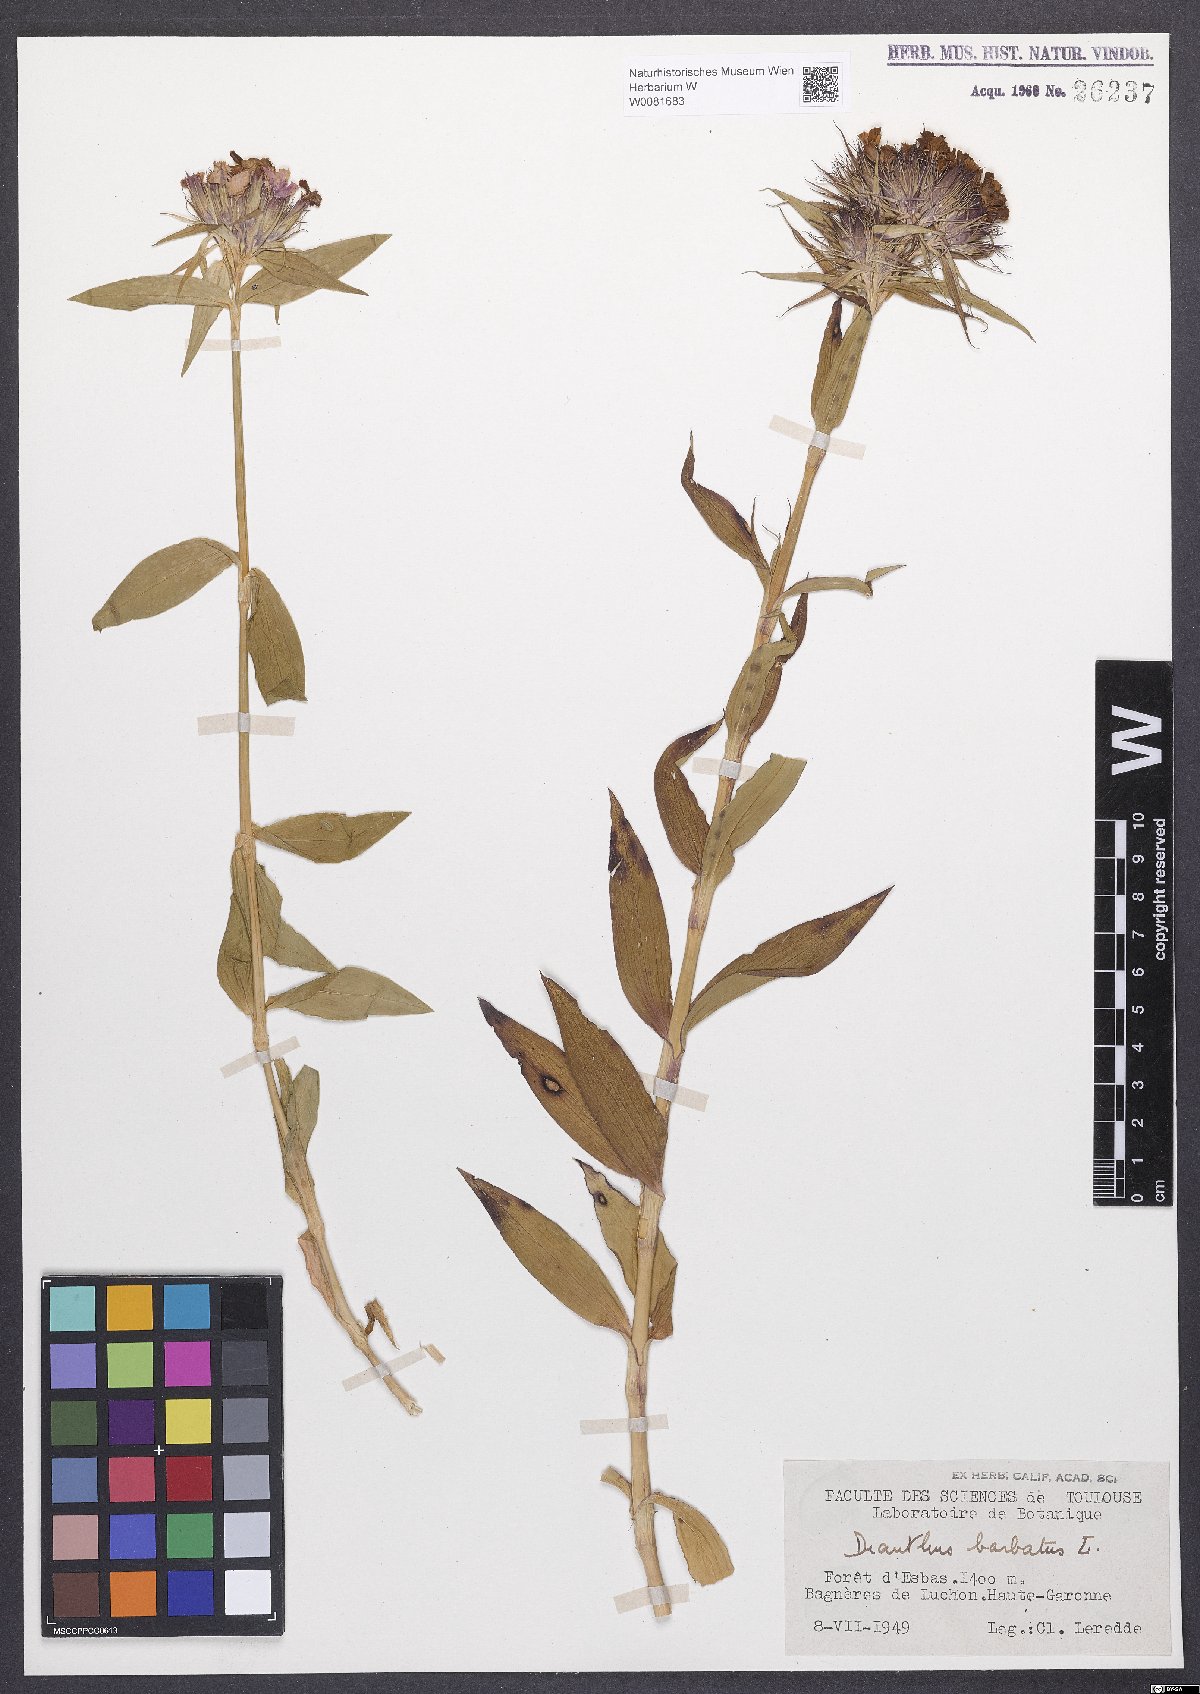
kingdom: Plantae
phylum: Tracheophyta
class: Magnoliopsida
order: Caryophyllales
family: Caryophyllaceae
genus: Dianthus
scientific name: Dianthus barbatus
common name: Sweet-william
